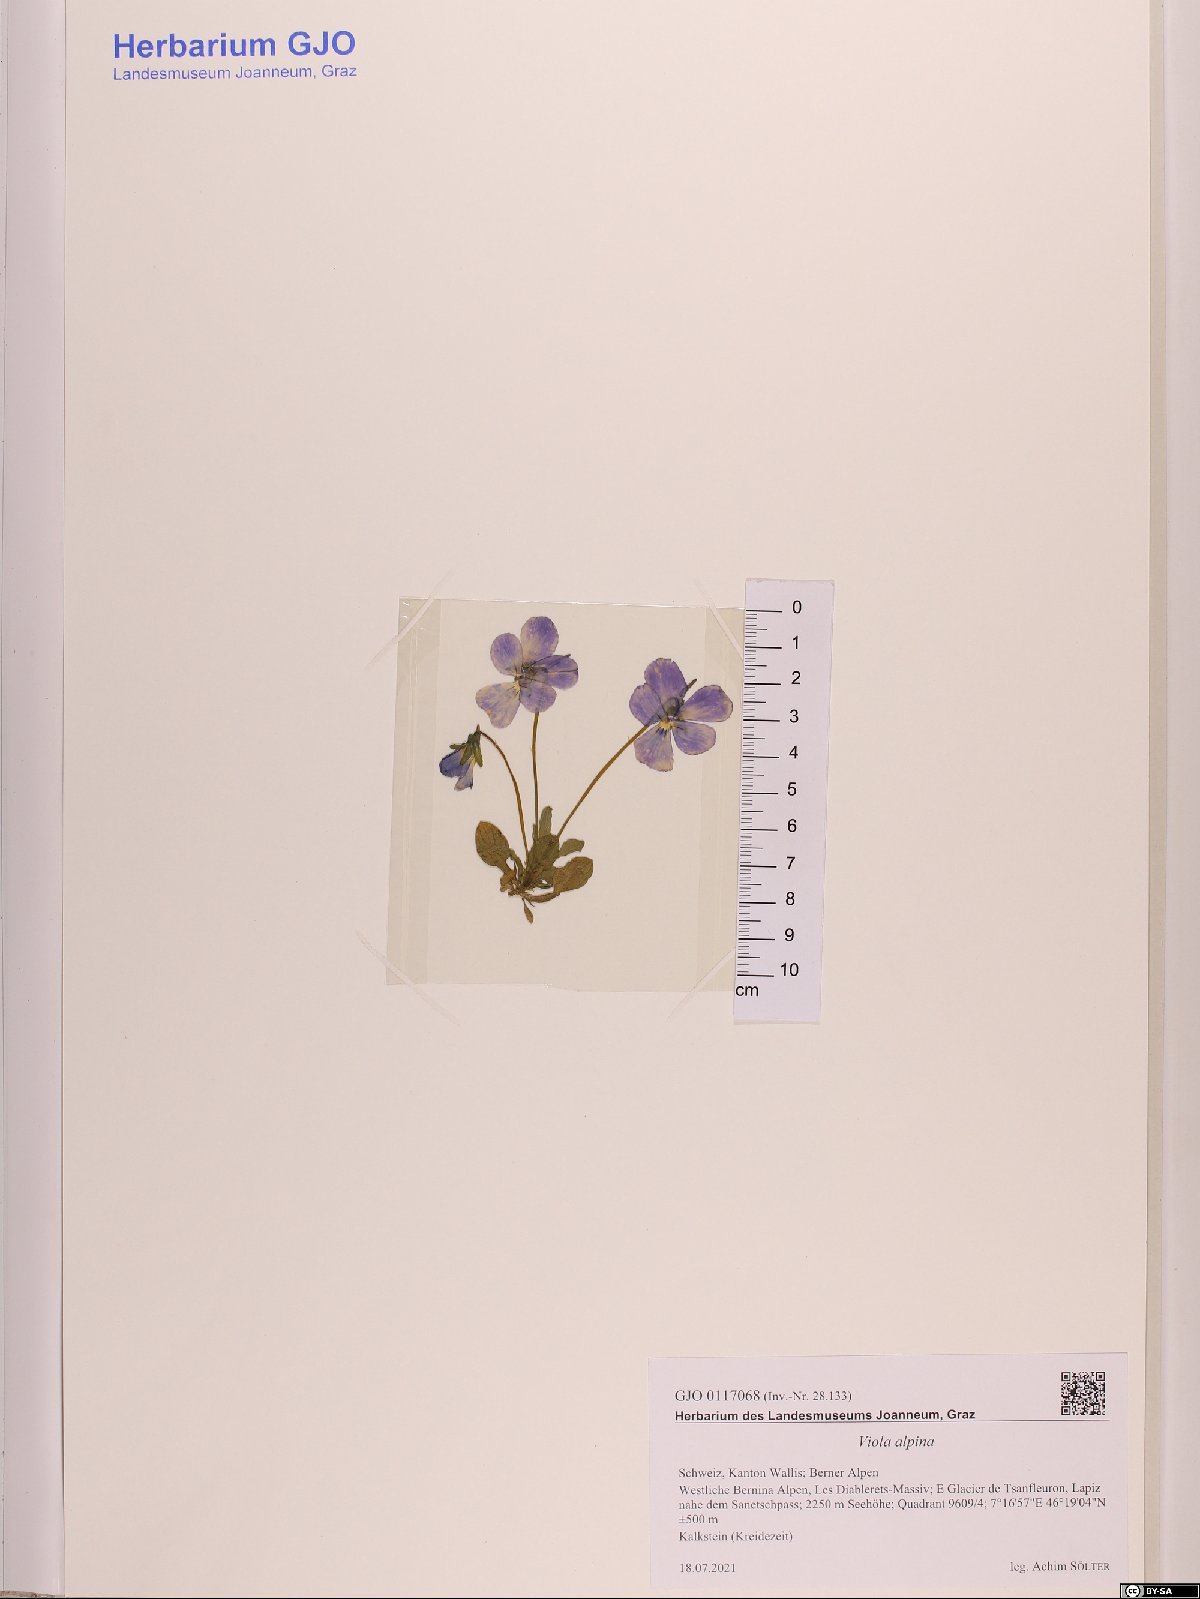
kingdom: Plantae
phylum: Tracheophyta
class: Magnoliopsida
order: Malpighiales
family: Violaceae
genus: Viola
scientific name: Viola alpina
